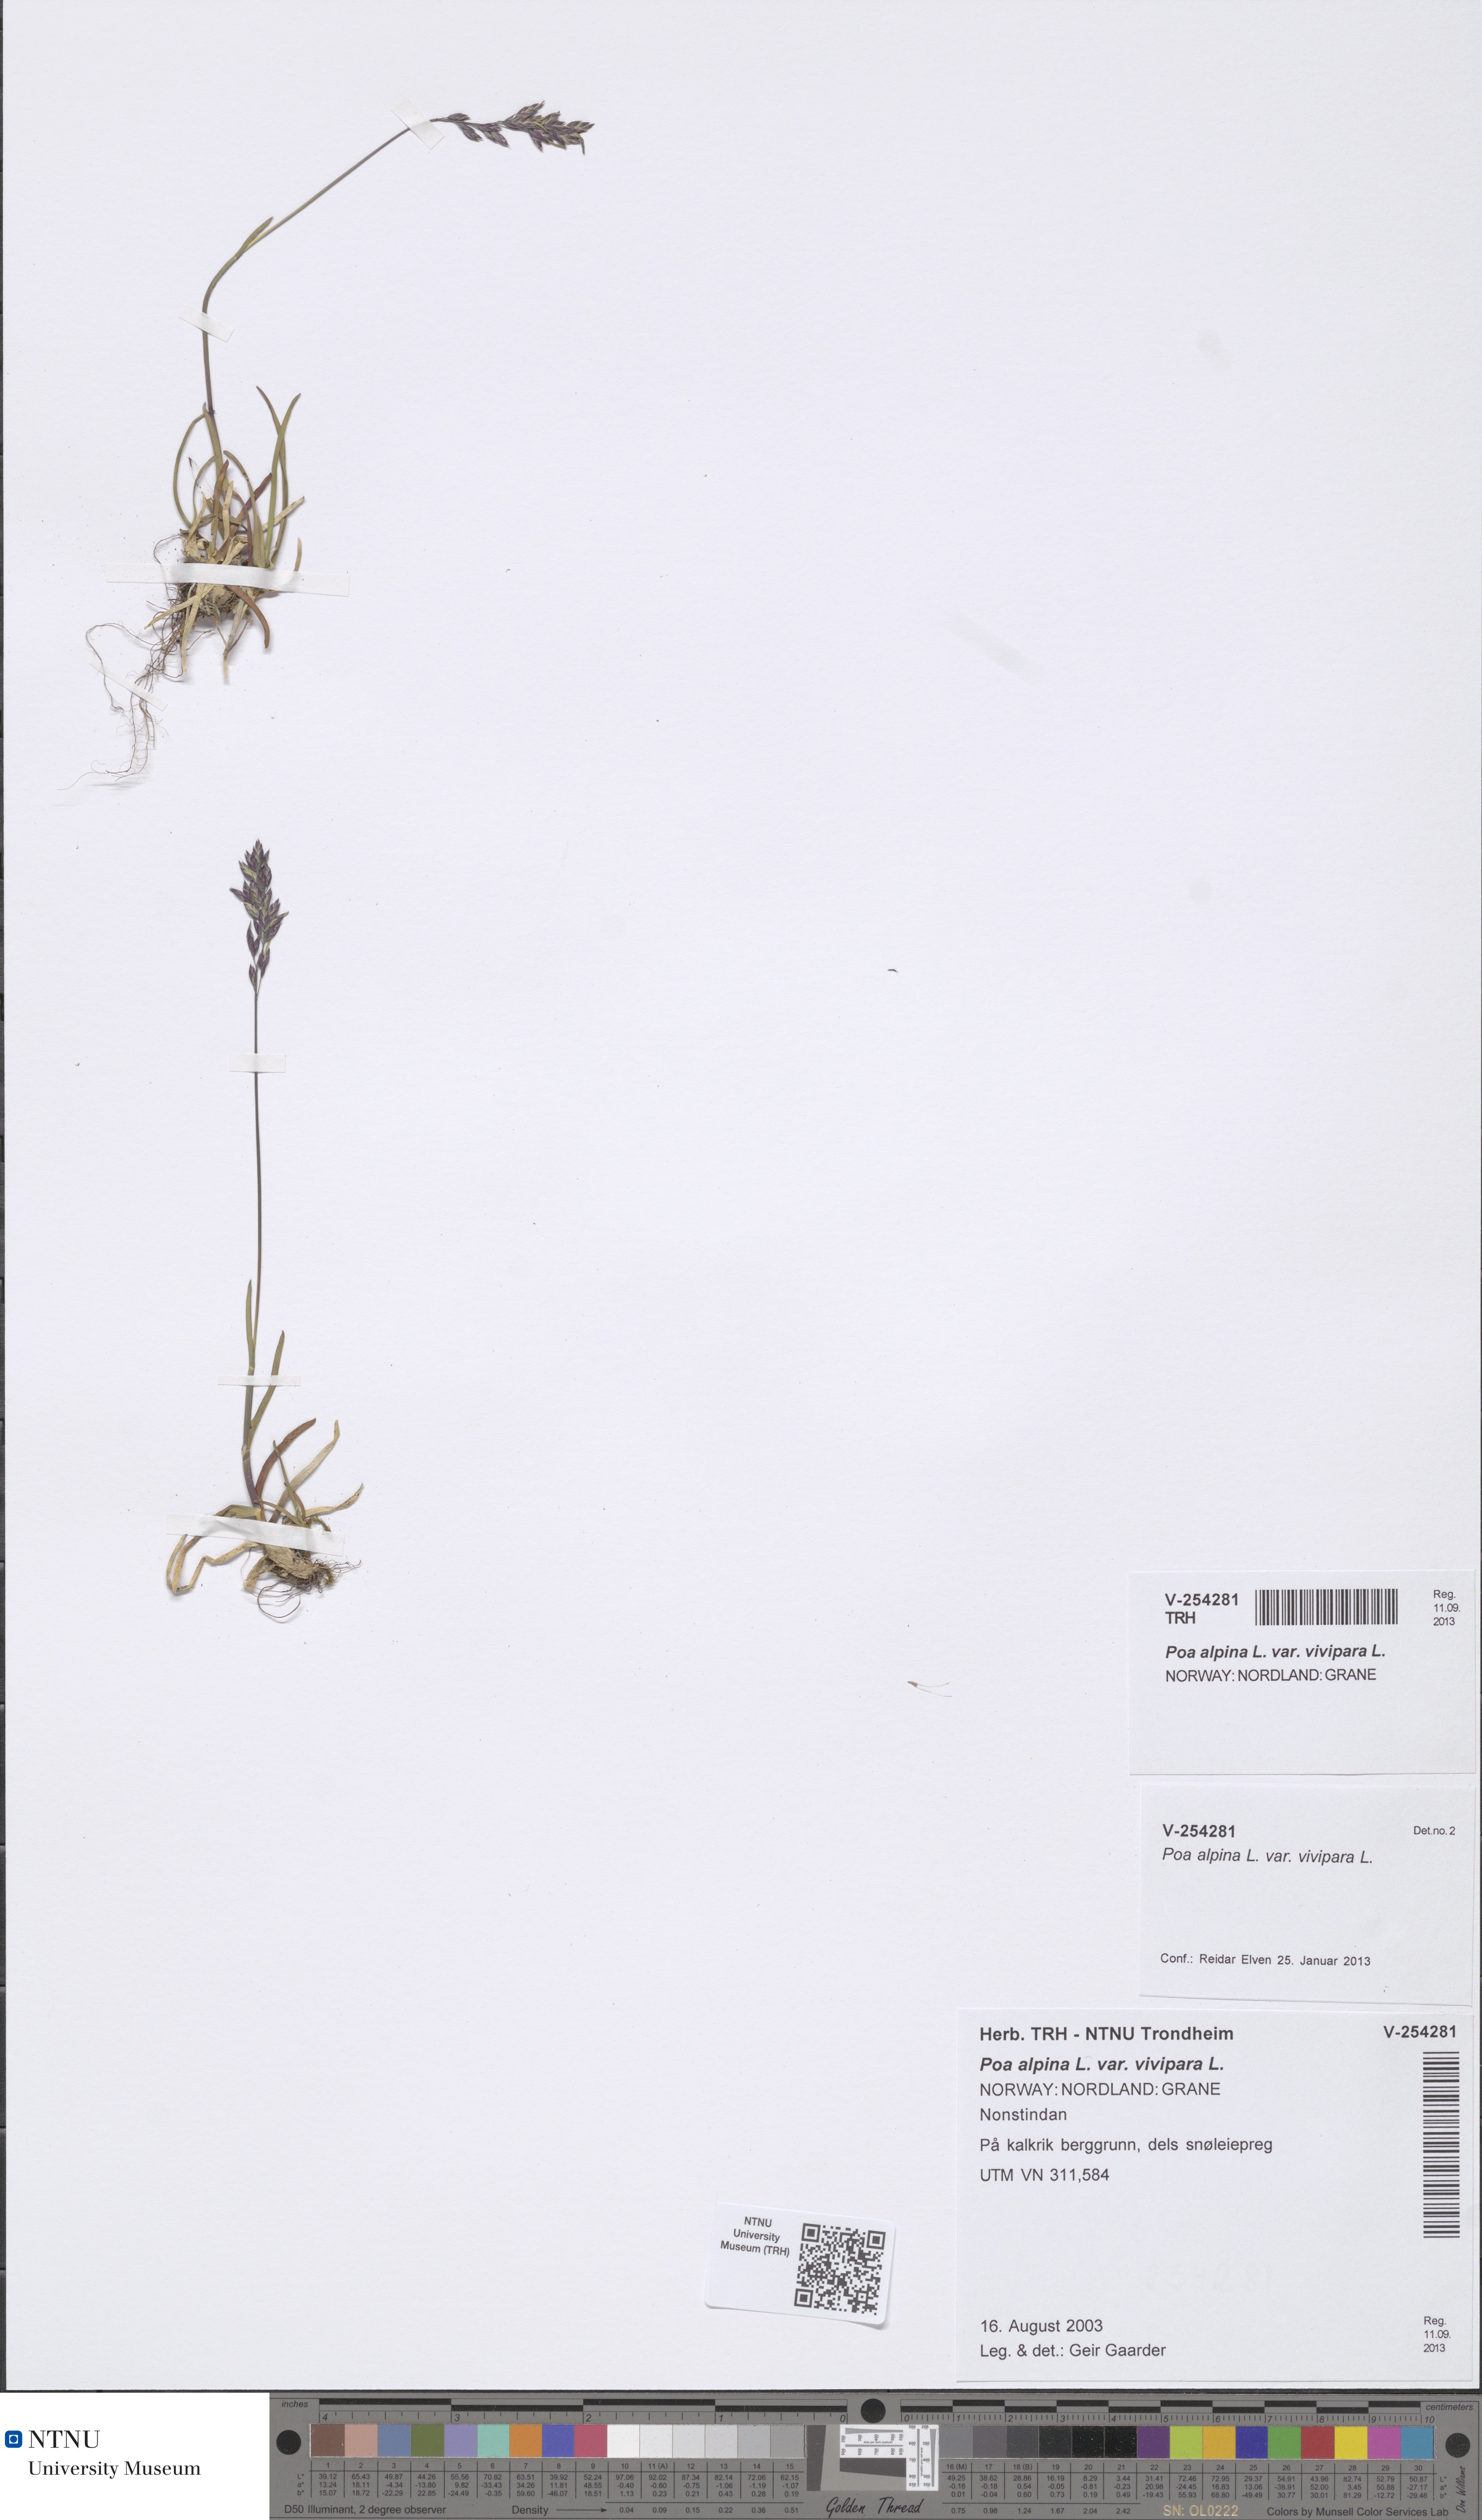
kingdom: Plantae
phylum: Tracheophyta
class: Liliopsida
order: Poales
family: Poaceae
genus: Poa
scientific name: Poa alpina
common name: Alpine bluegrass
